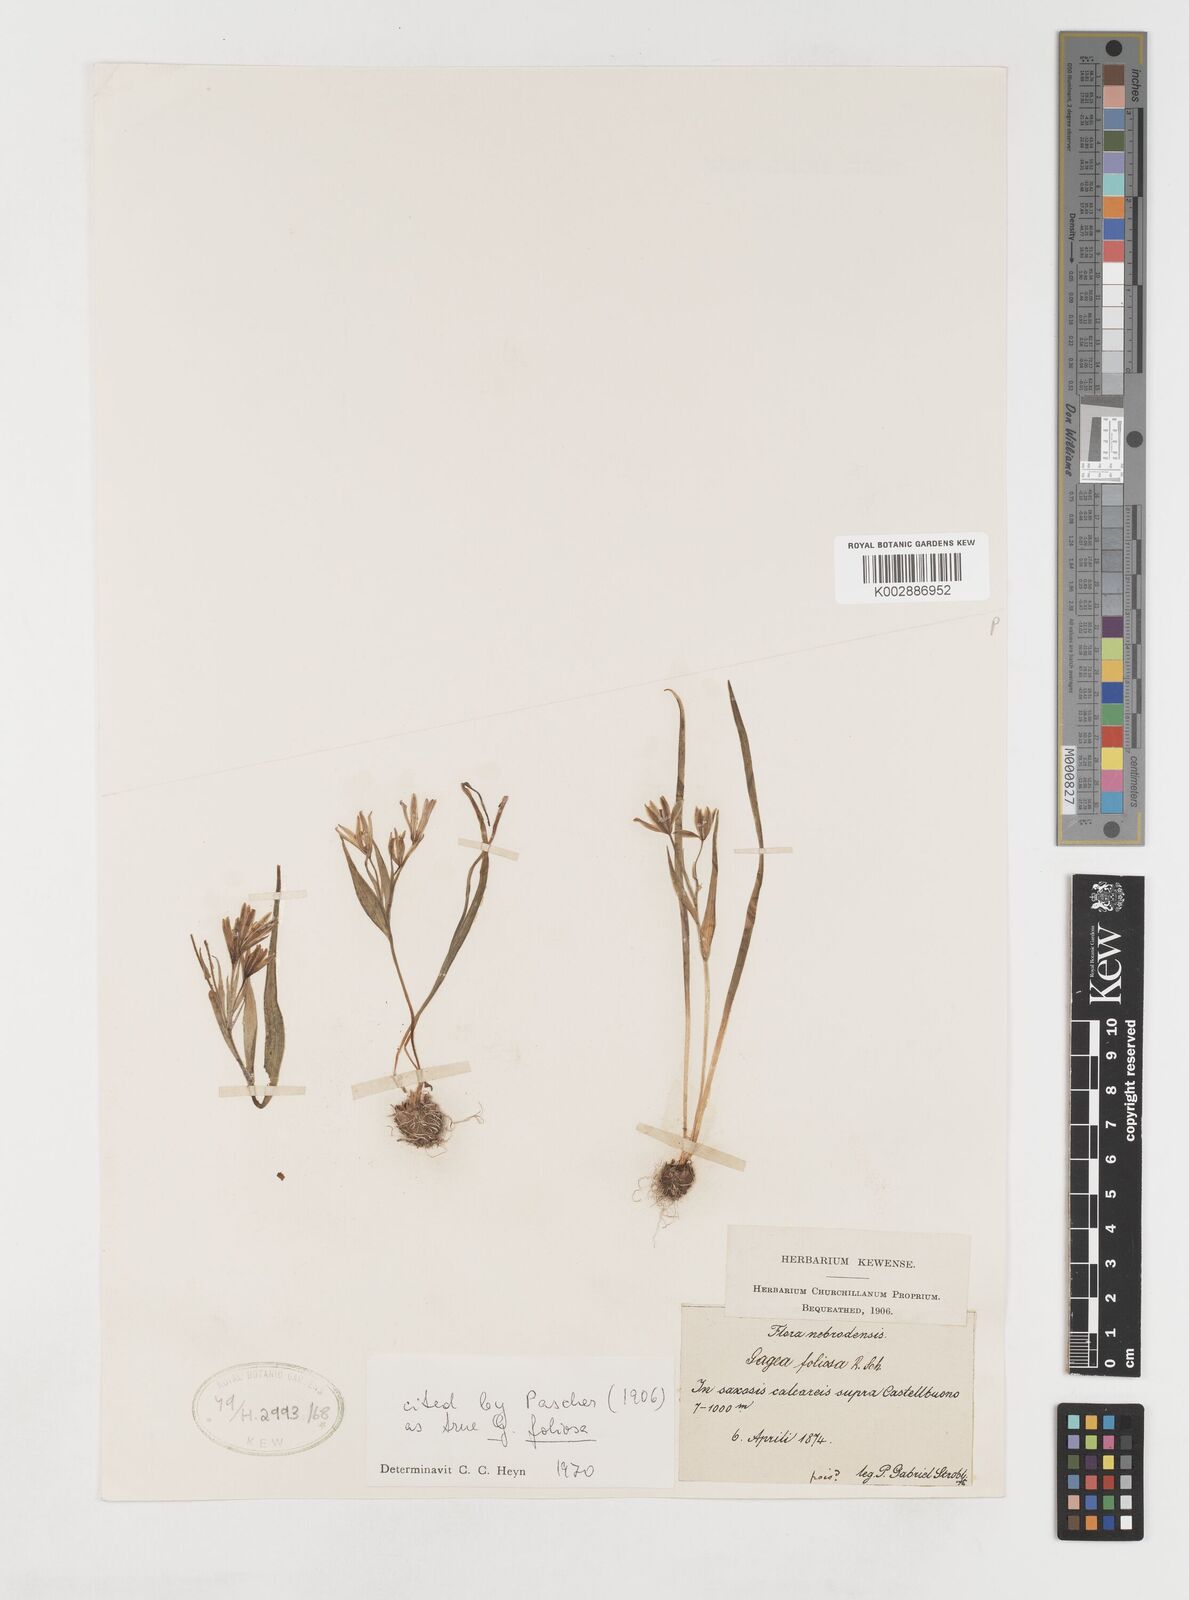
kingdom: Plantae
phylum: Tracheophyta
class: Liliopsida
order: Liliales
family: Liliaceae
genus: Gagea
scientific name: Gagea foliosa
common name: Leafy gagea
